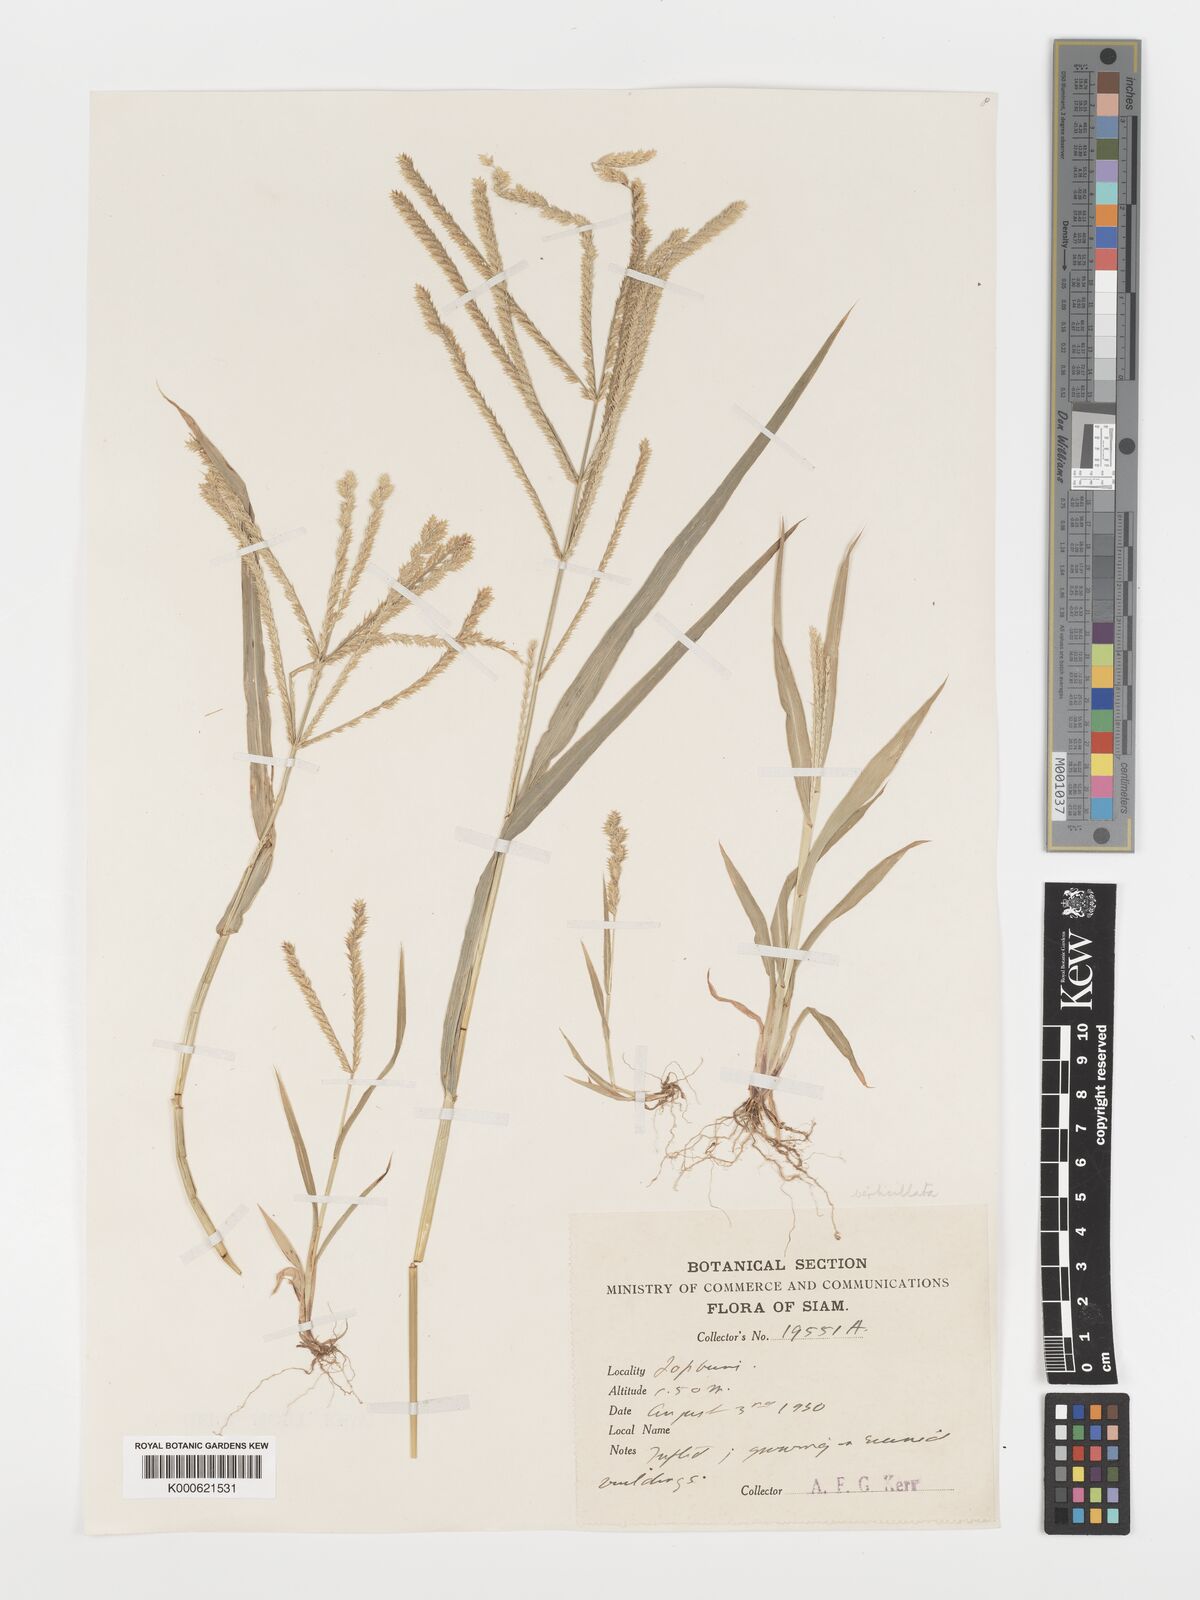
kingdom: Plantae
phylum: Tracheophyta
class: Liliopsida
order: Poales
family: Poaceae
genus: Acrachne
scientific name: Acrachne racemosa
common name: Goosegrass
